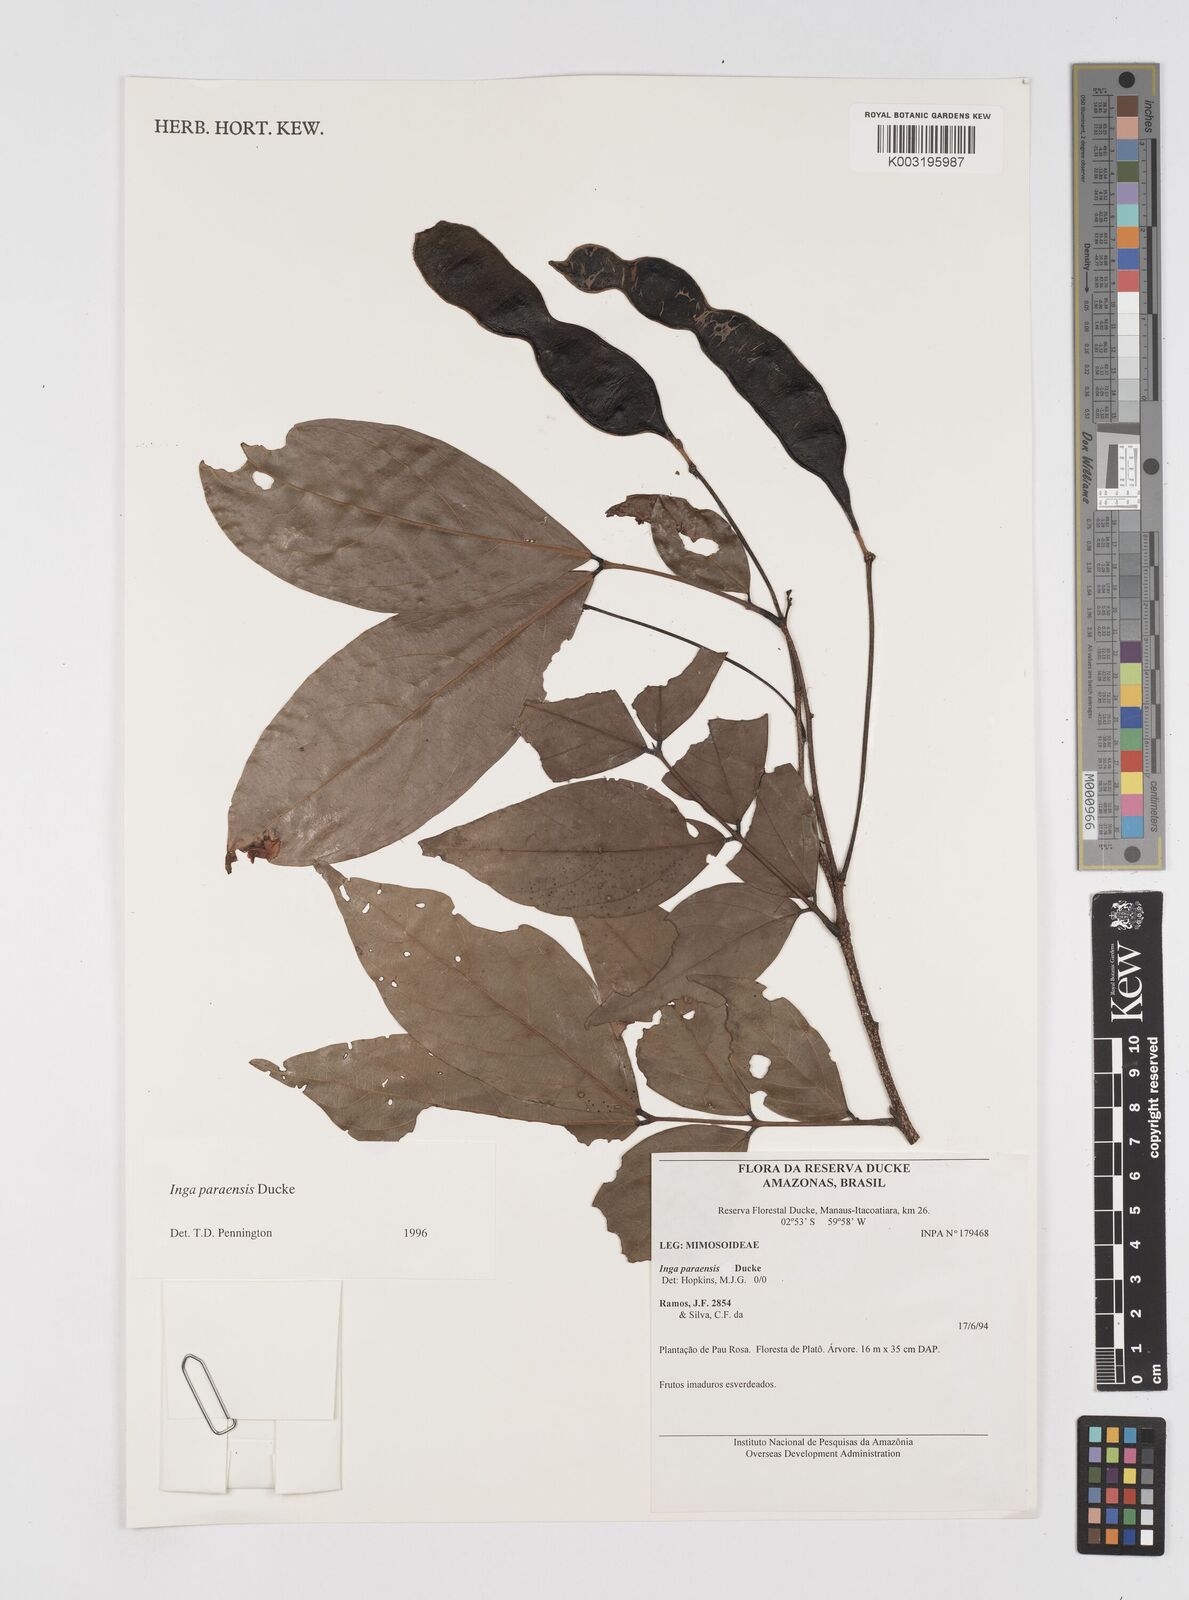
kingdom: Plantae
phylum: Tracheophyta
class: Magnoliopsida
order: Fabales
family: Fabaceae
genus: Inga
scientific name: Inga paraensis
